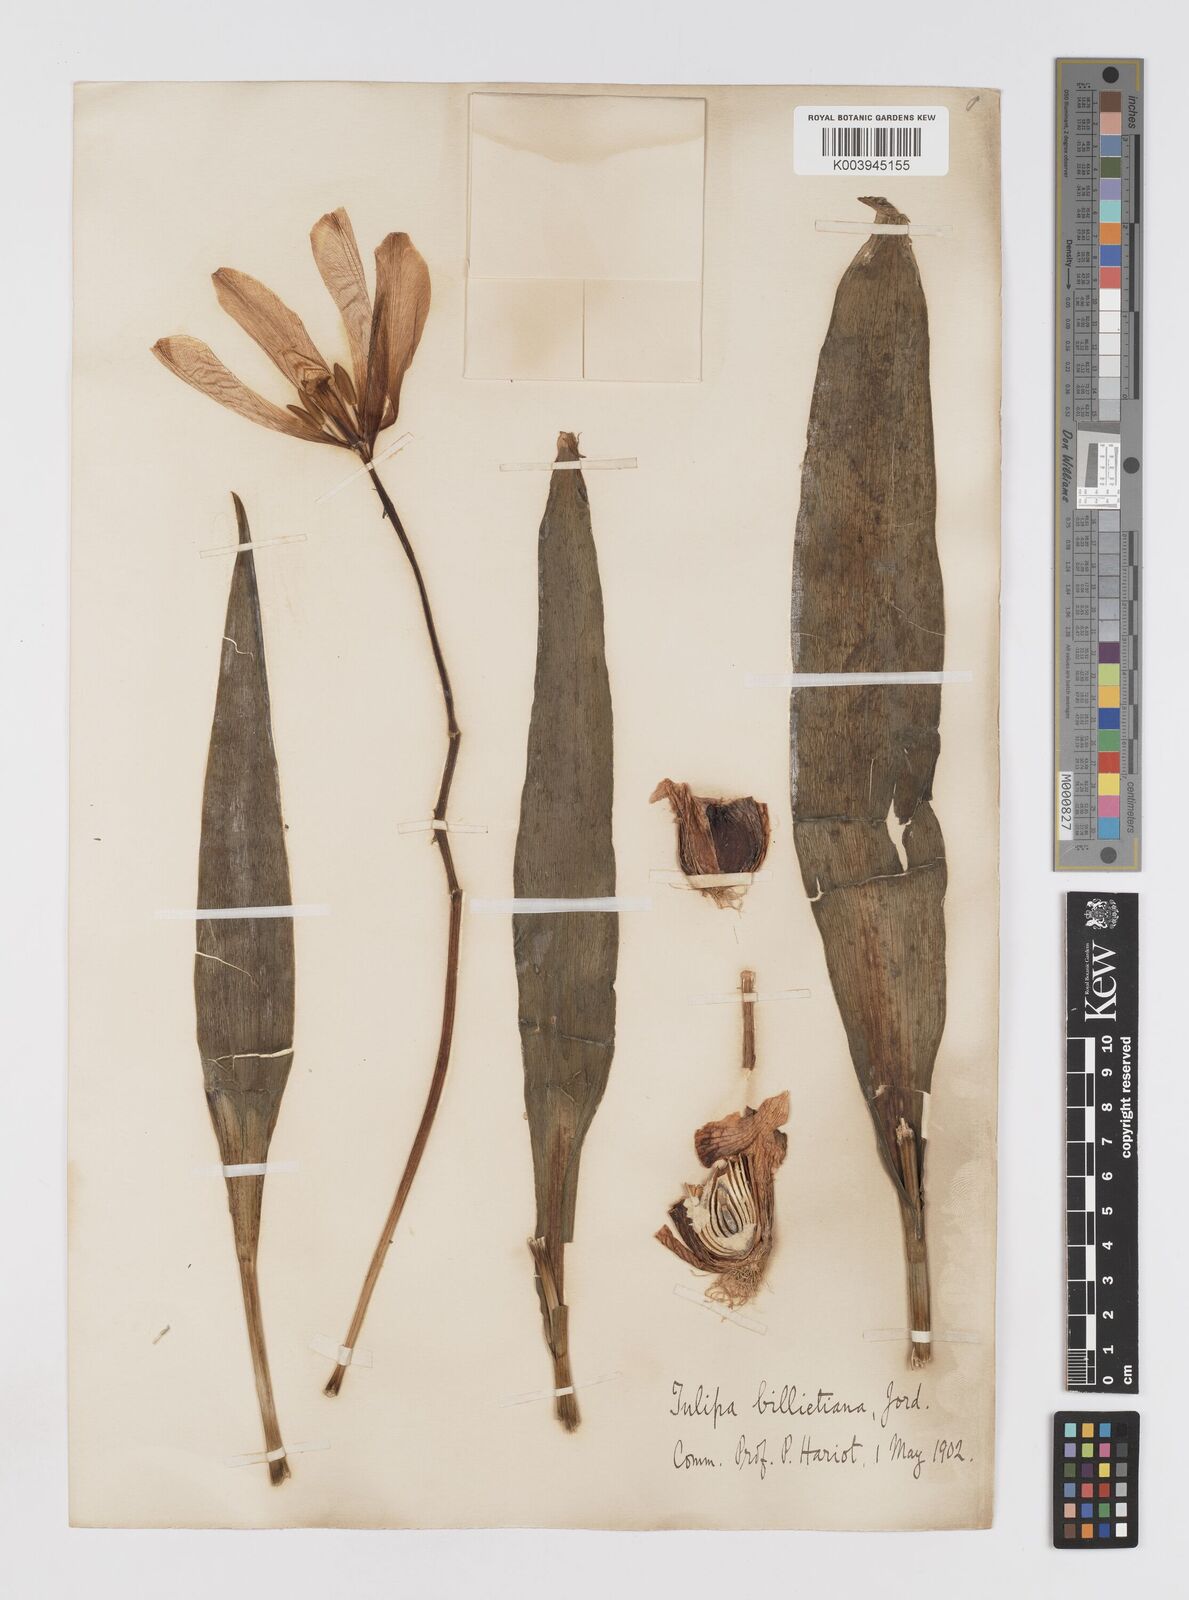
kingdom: Plantae
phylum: Tracheophyta
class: Liliopsida
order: Liliales
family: Liliaceae
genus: Tulipa
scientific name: Tulipa gesneriana
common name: Garden tulip
